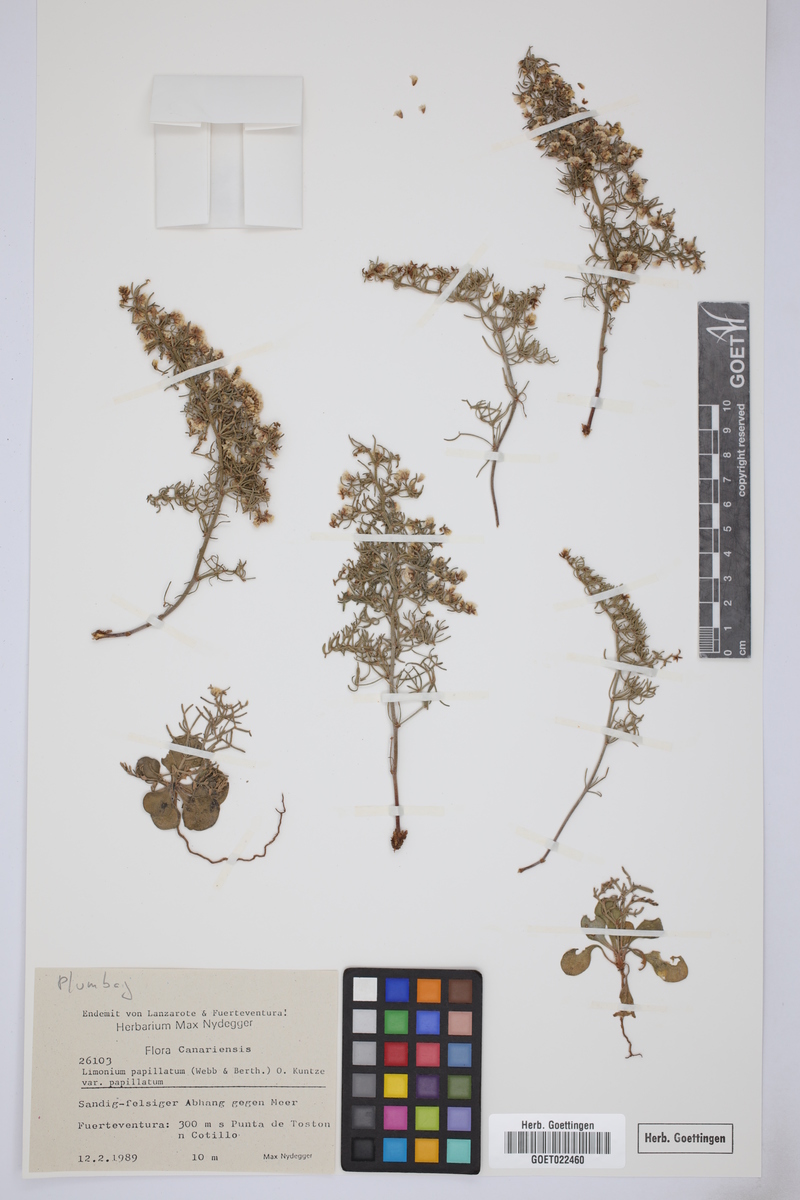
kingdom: Plantae
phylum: Tracheophyta
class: Magnoliopsida
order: Caryophyllales
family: Plumbaginaceae
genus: Limonium
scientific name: Limonium papillatum
